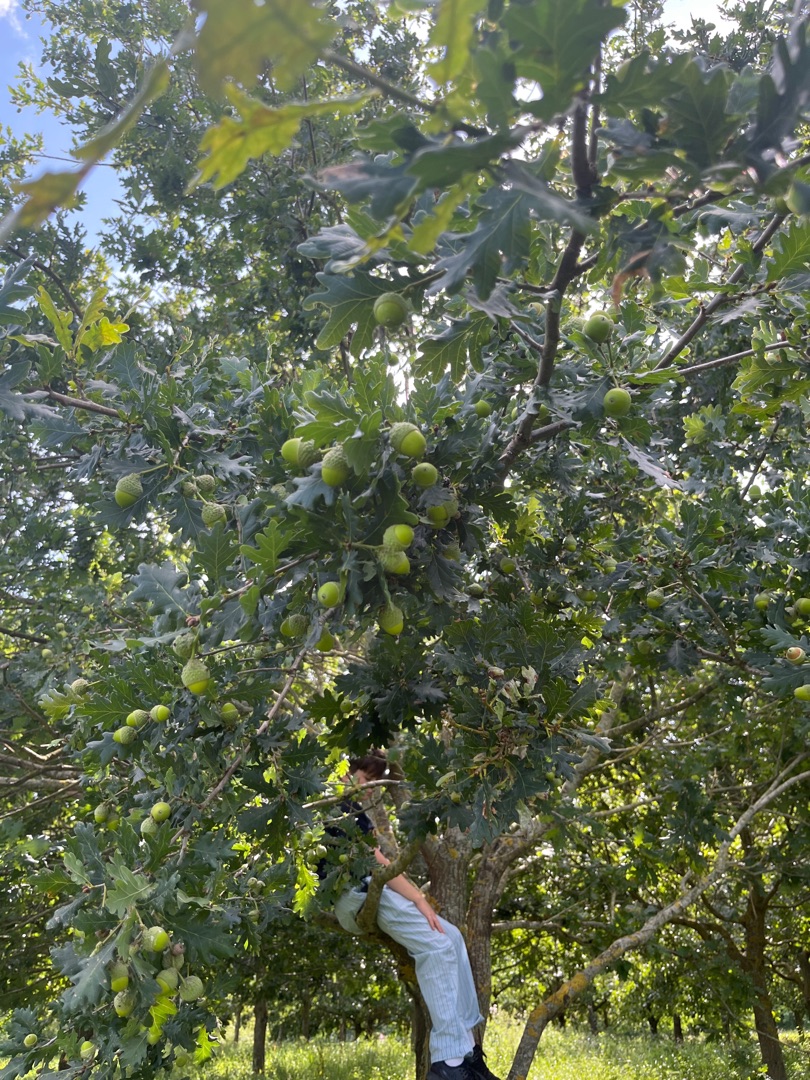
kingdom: Plantae
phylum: Tracheophyta
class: Magnoliopsida
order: Fagales
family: Fagaceae
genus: Quercus
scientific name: Quercus robur
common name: Stilk-eg/almindelig eg
